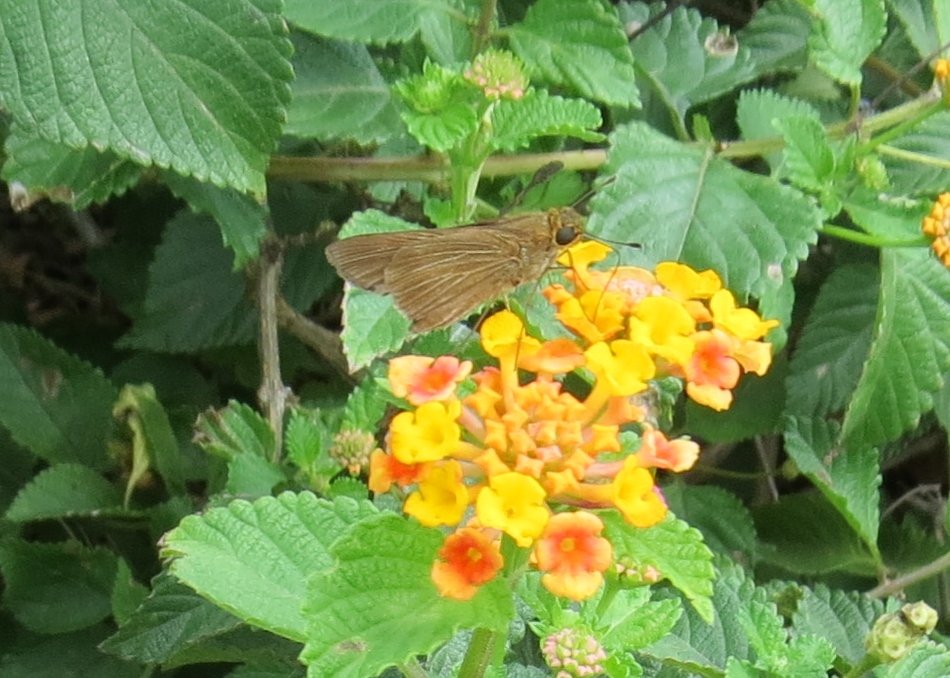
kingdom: Animalia
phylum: Arthropoda
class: Insecta
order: Lepidoptera
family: Hesperiidae
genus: Panoquina
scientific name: Panoquina ocola
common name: Ocola Skipper
